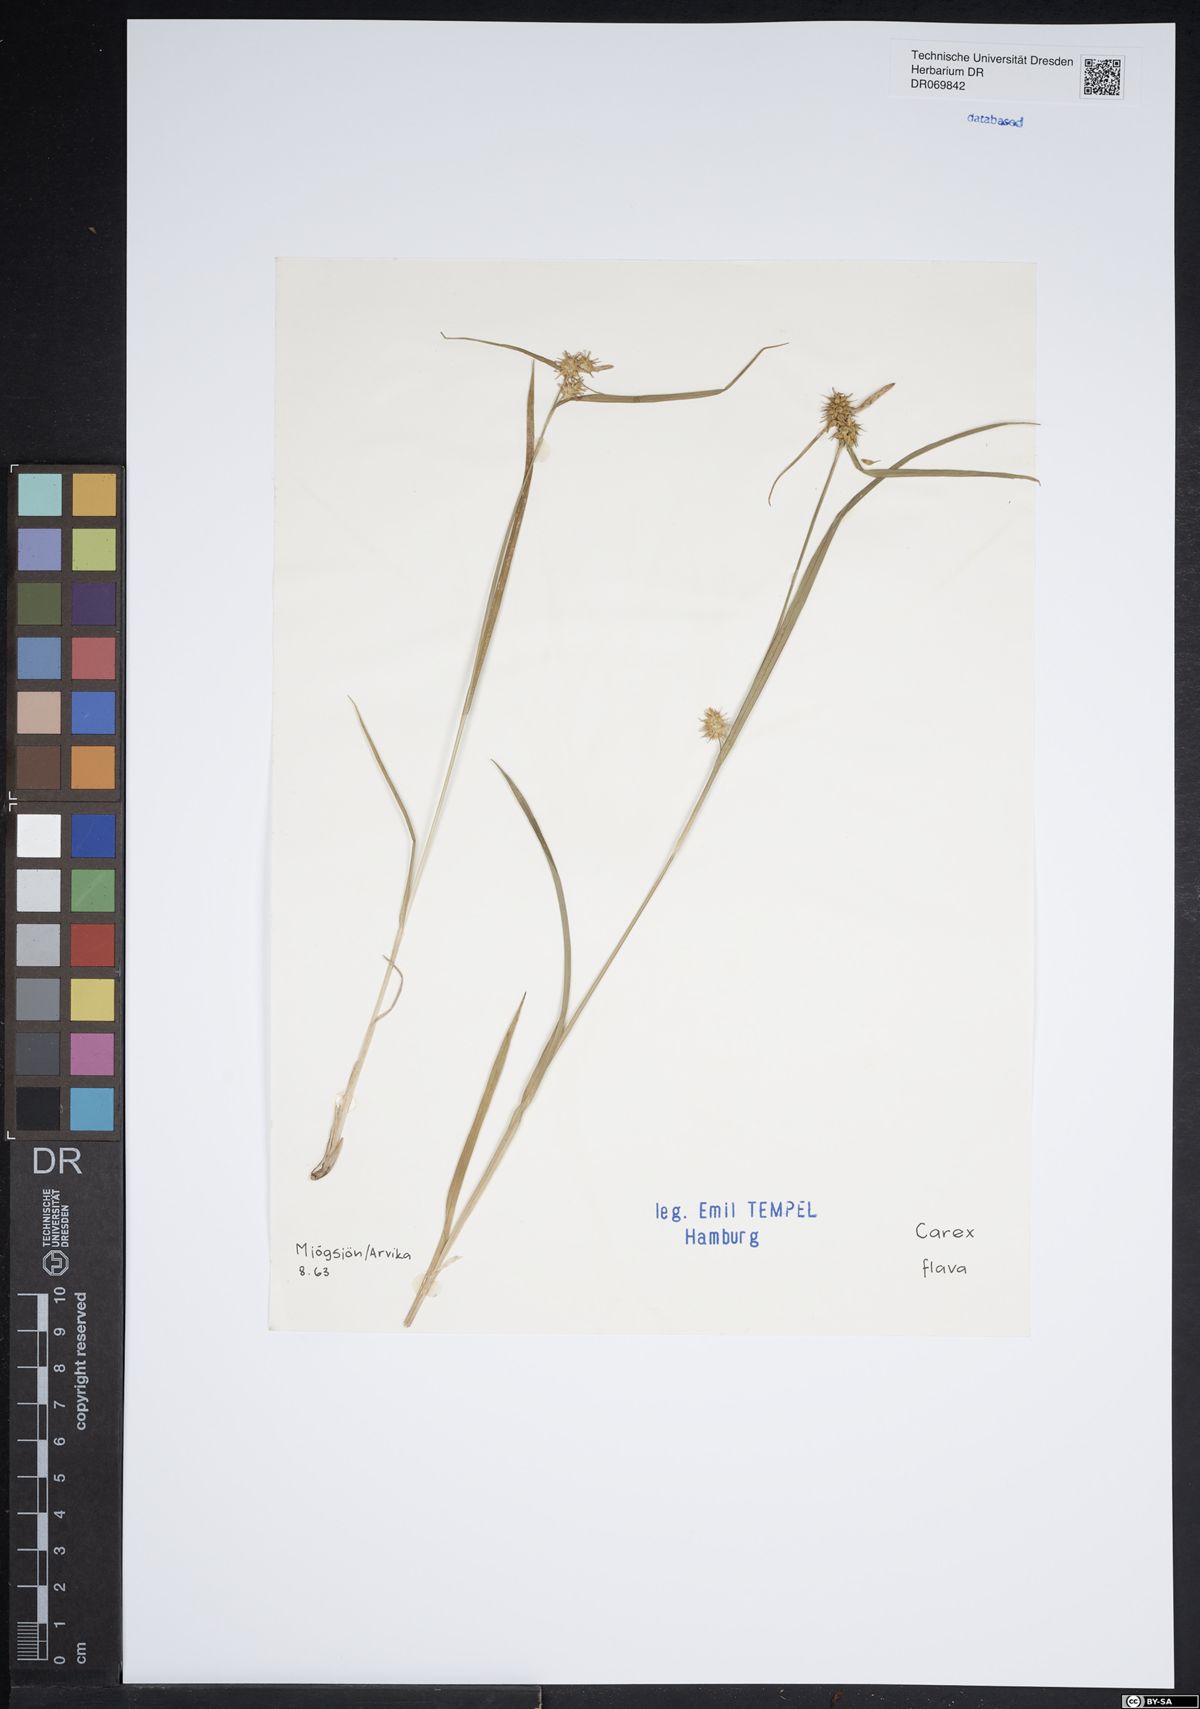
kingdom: Plantae
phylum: Tracheophyta
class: Liliopsida
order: Poales
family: Cyperaceae
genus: Carex
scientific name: Carex flava
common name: Large yellow-sedge
